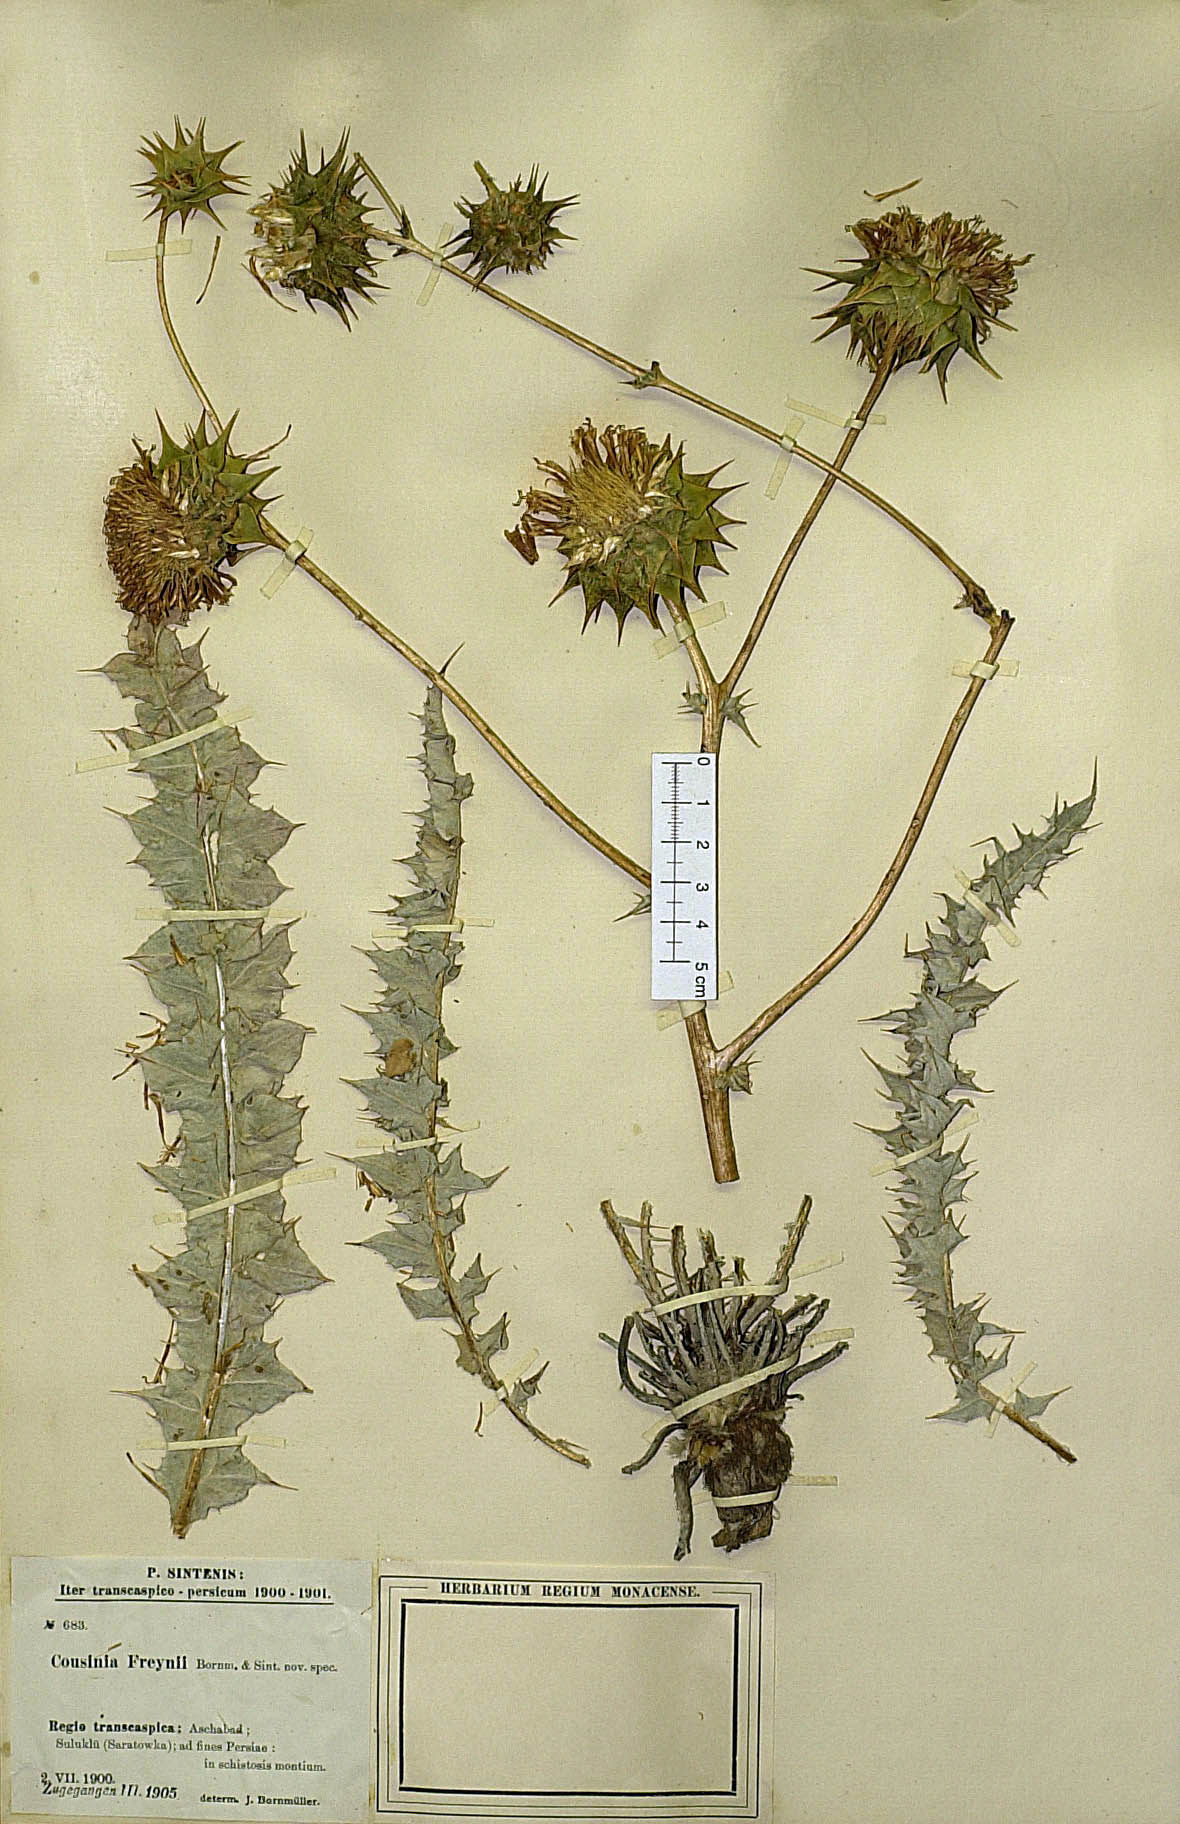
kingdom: Plantae
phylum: Tracheophyta
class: Magnoliopsida
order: Asterales
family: Asteraceae
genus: Cousinia
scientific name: Cousinia freynii
